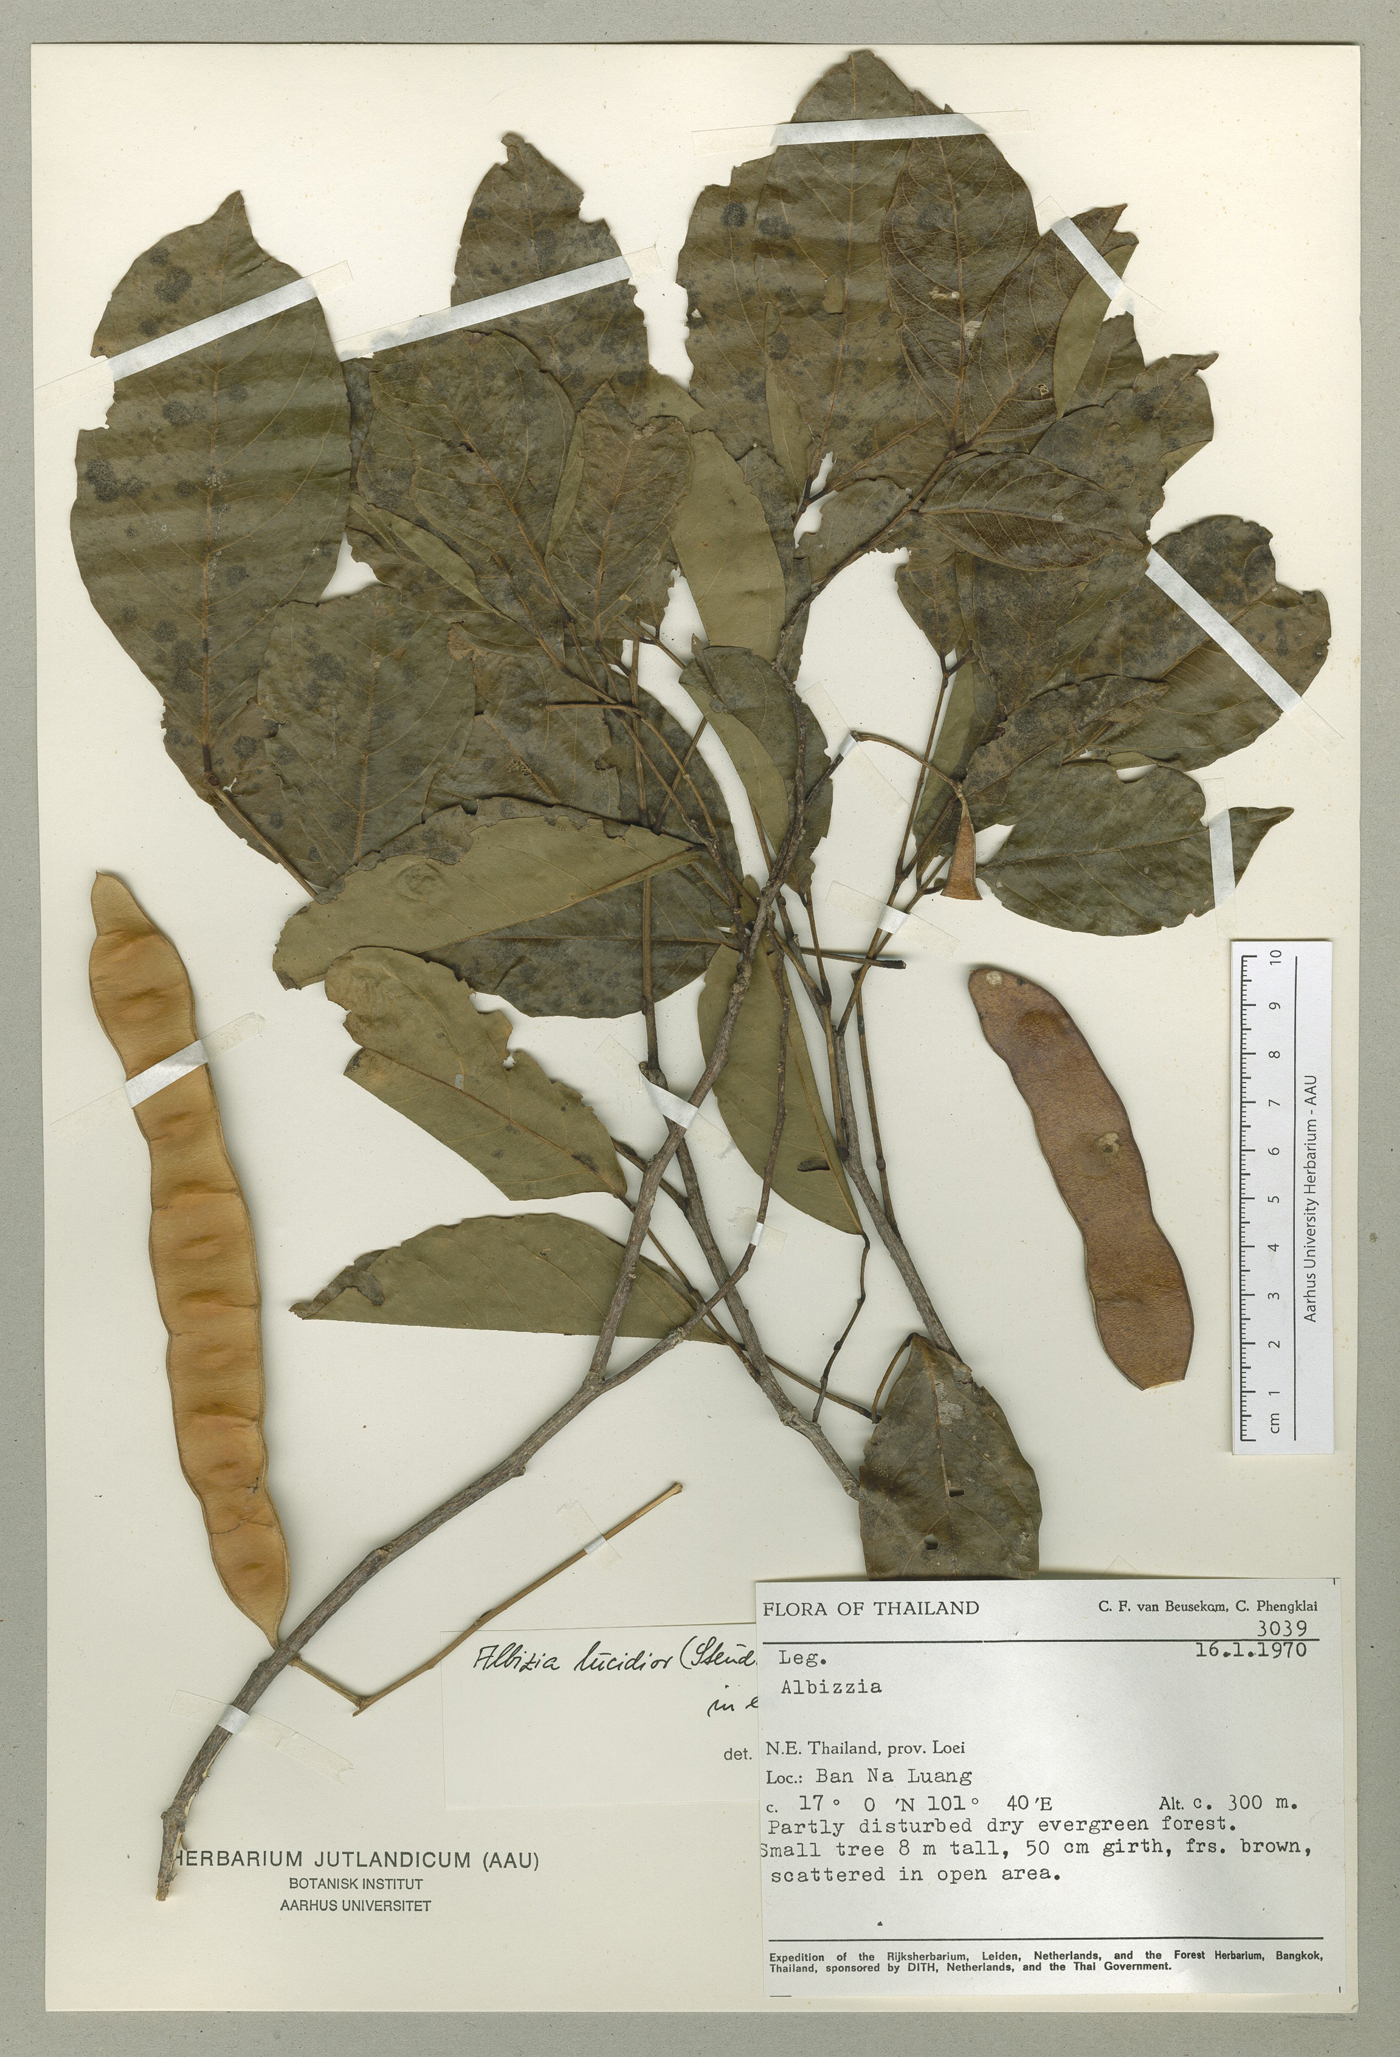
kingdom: Plantae
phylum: Tracheophyta
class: Magnoliopsida
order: Fabales
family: Fabaceae
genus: Albizia
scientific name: Albizia lucidior
